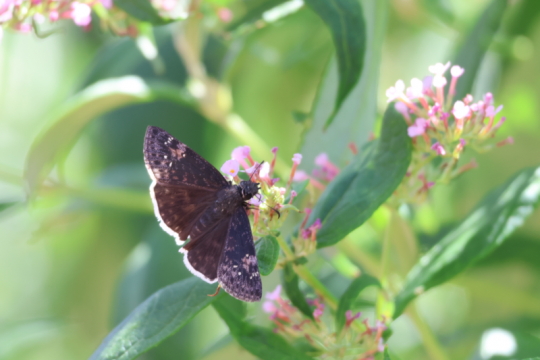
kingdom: Animalia
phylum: Arthropoda
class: Insecta
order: Lepidoptera
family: Hesperiidae
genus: Erynnis
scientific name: Erynnis funeralis
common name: Funereal Duskywing
